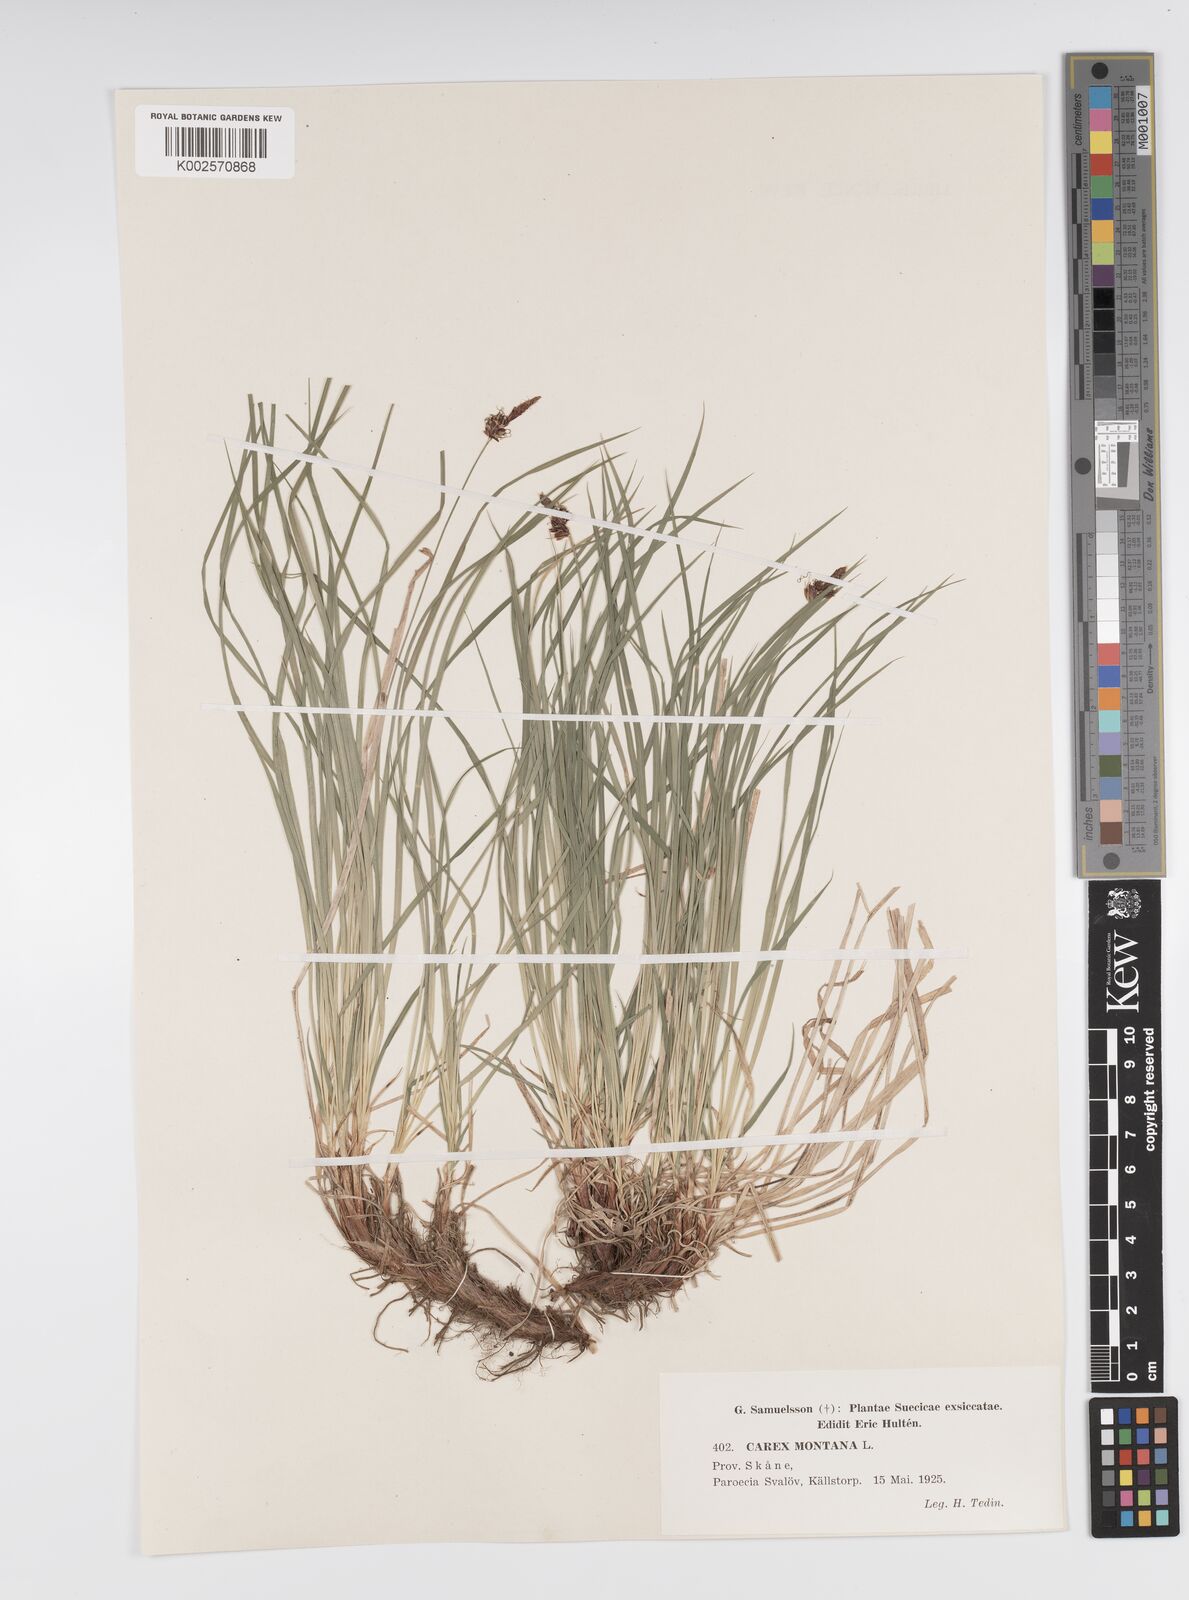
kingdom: Plantae
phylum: Tracheophyta
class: Liliopsida
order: Poales
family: Cyperaceae
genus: Carex
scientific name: Carex montana
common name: Soft-leaved sedge
